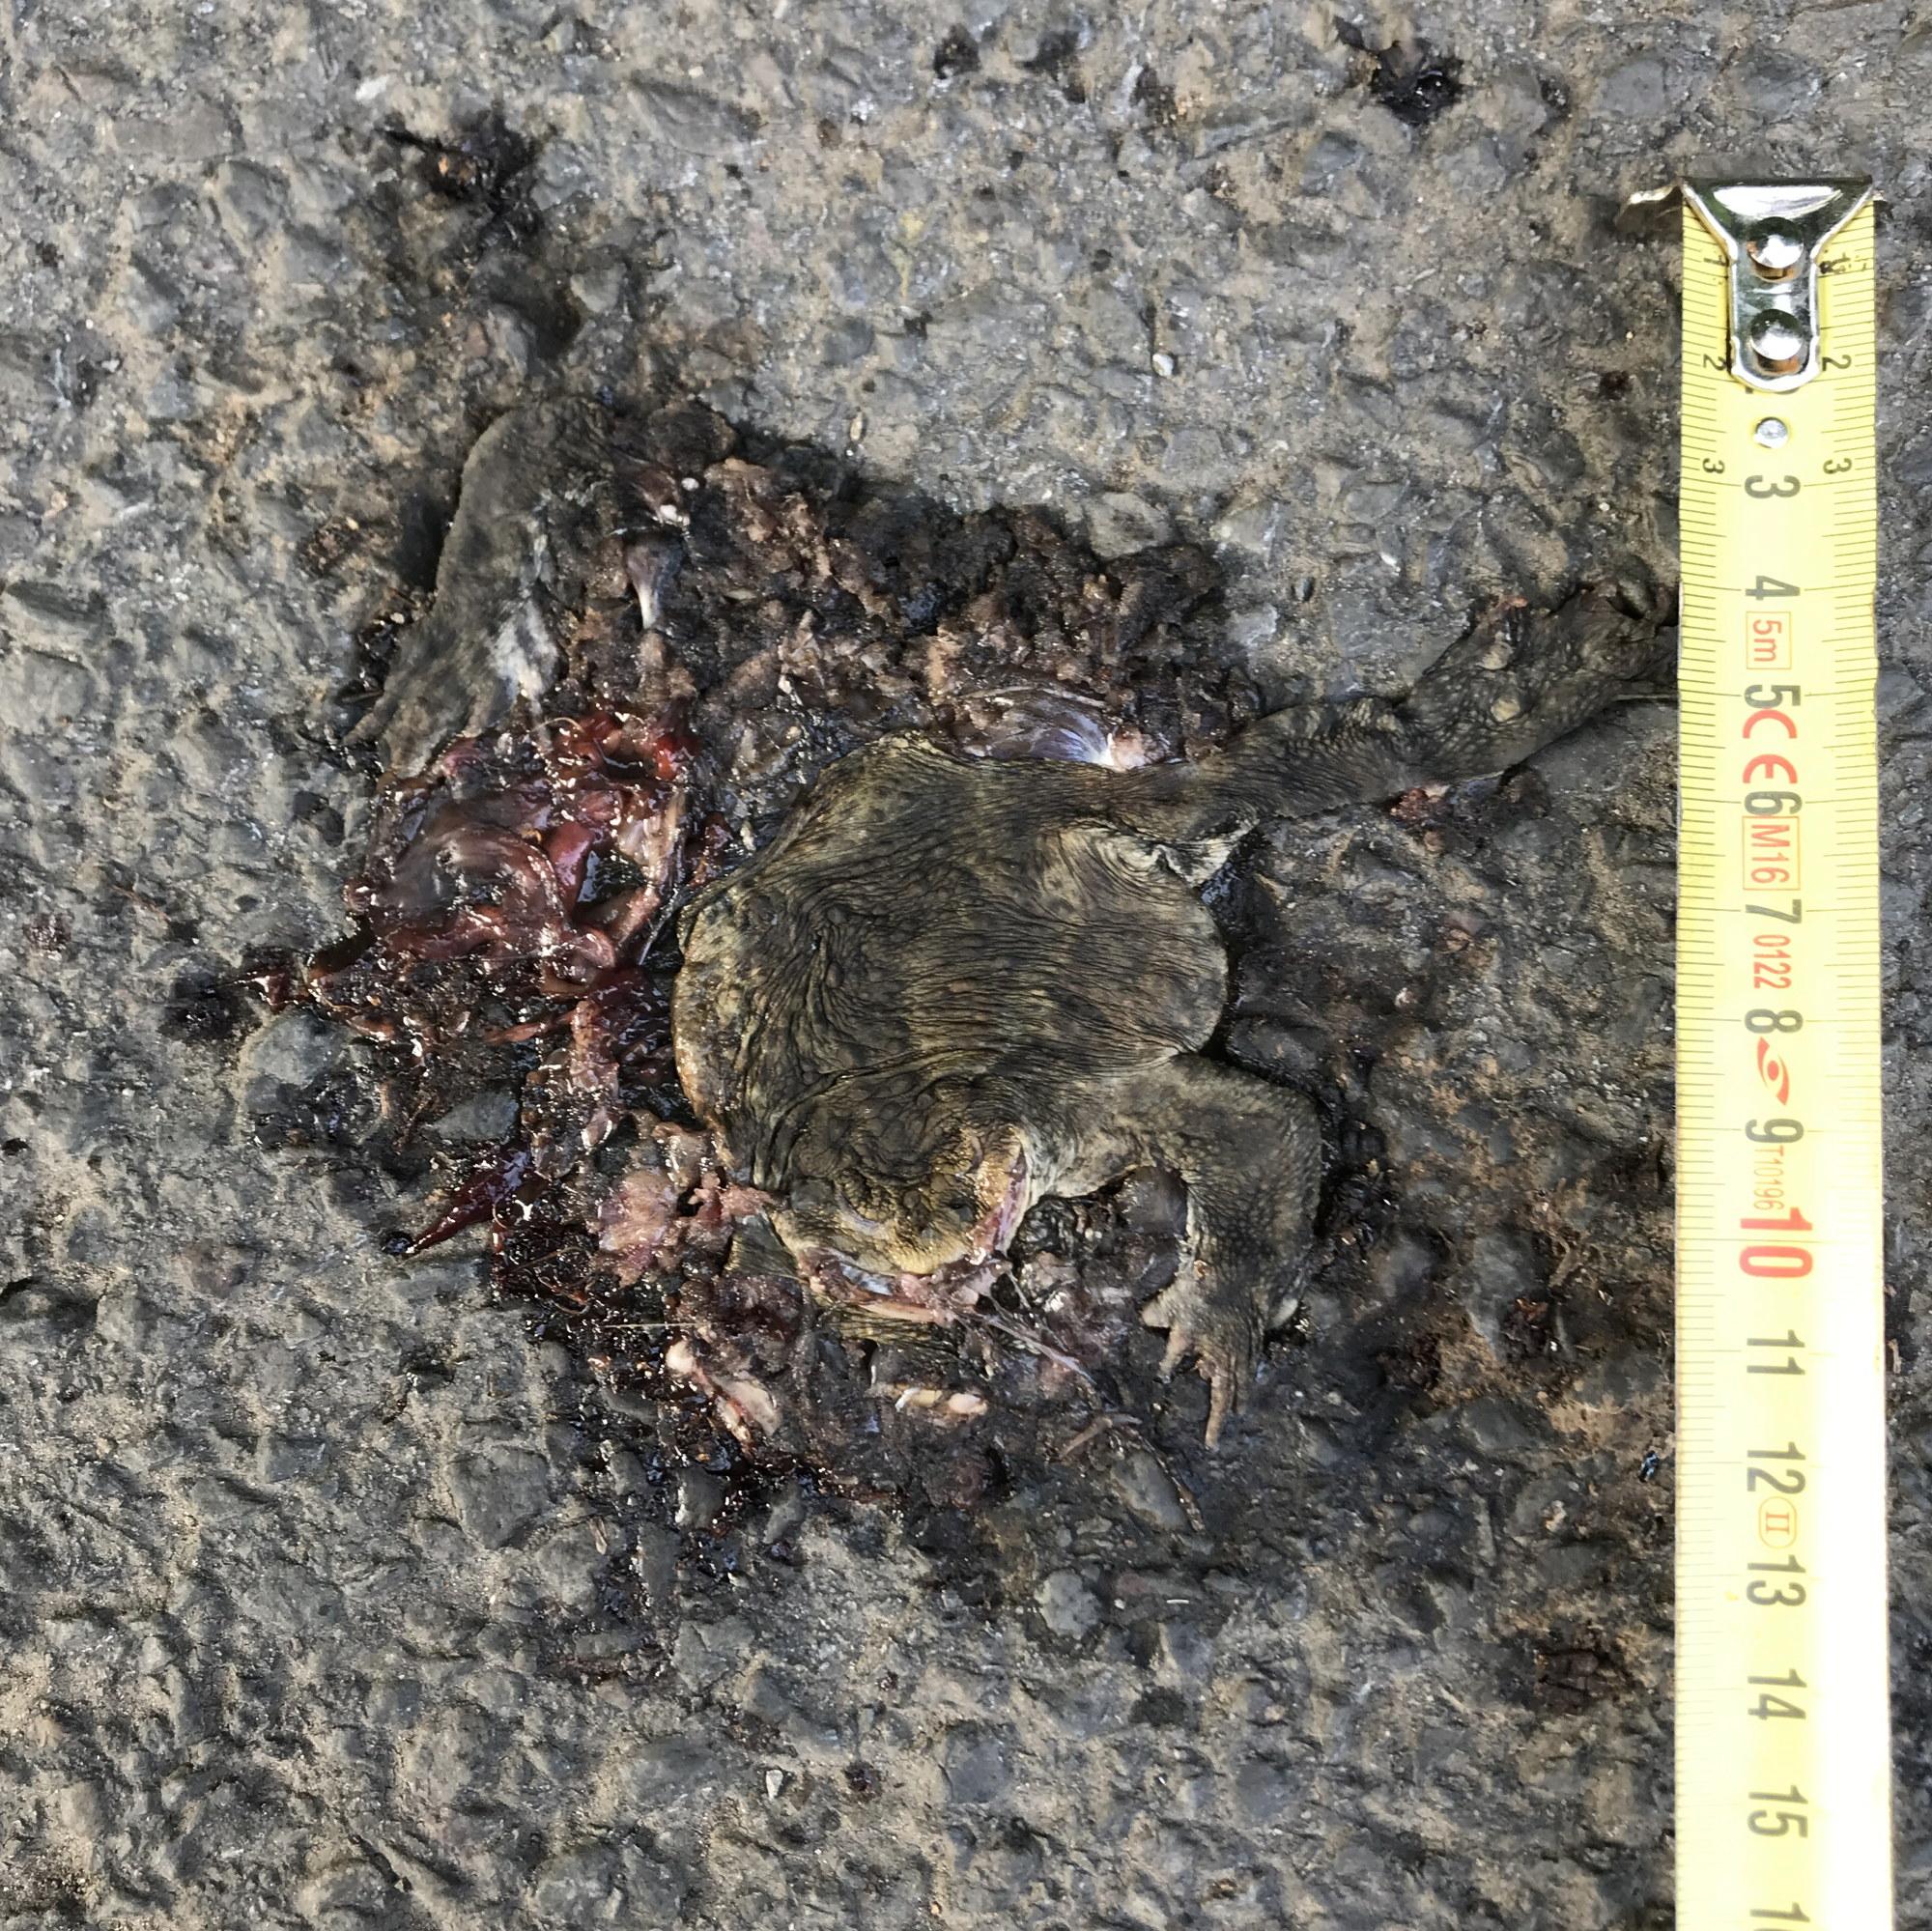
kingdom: Animalia
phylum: Chordata
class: Amphibia
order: Anura
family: Bufonidae
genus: Bufo
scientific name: Bufo bufo
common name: Common toad
